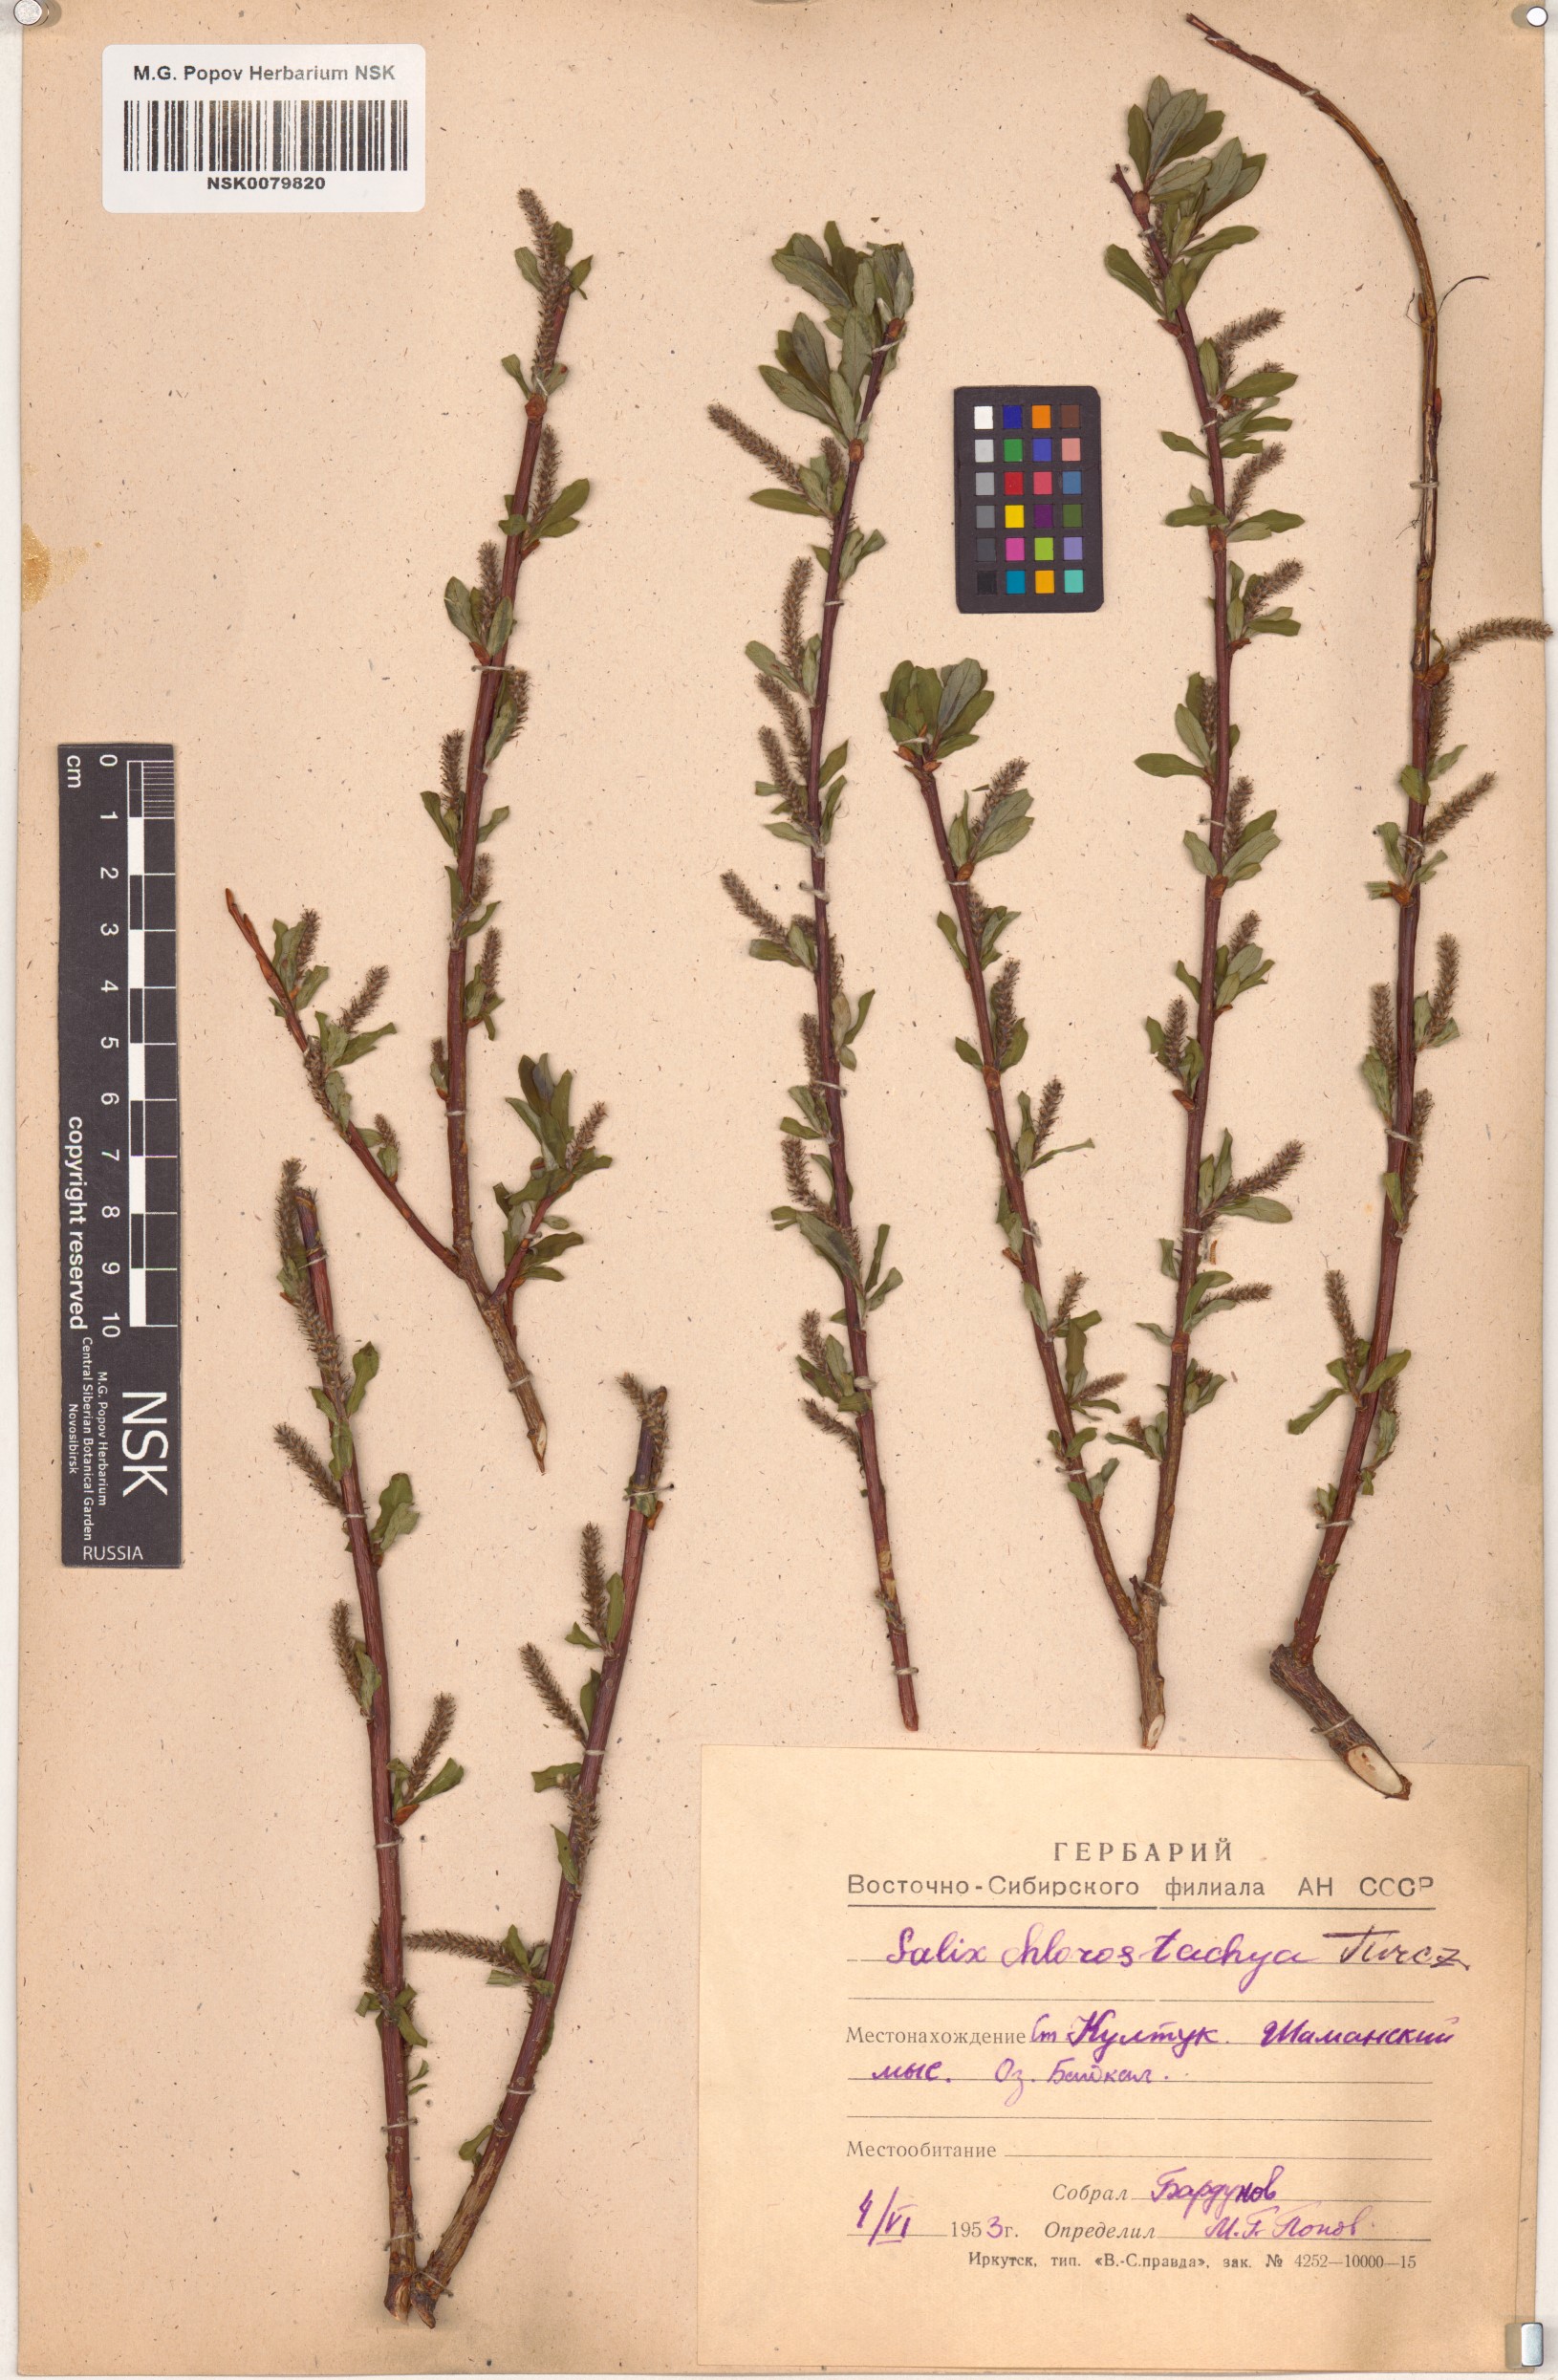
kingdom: Plantae
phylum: Tracheophyta
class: Magnoliopsida
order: Malpighiales
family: Salicaceae
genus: Salix
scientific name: Salix rhamnifolia
